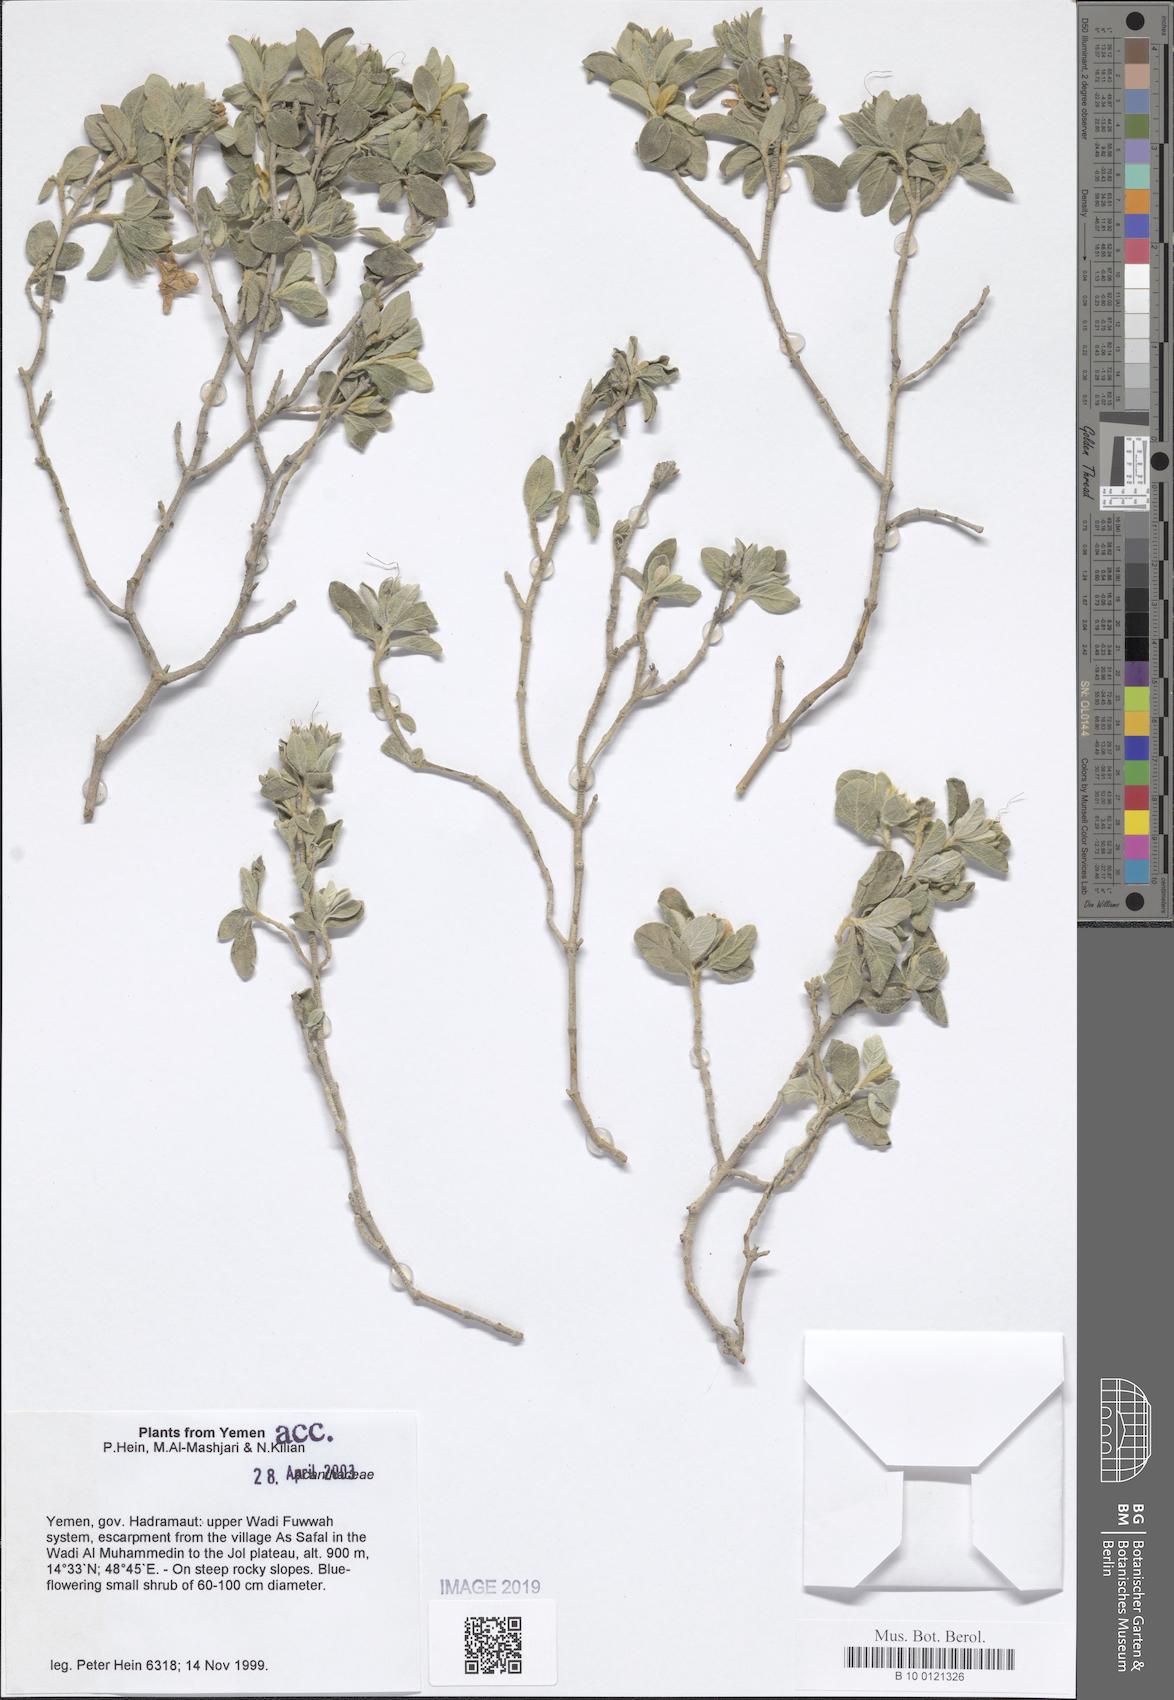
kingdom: Plantae
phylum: Tracheophyta
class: Magnoliopsida
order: Lamiales
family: Acanthaceae
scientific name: Acanthaceae
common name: Acanthaceae
